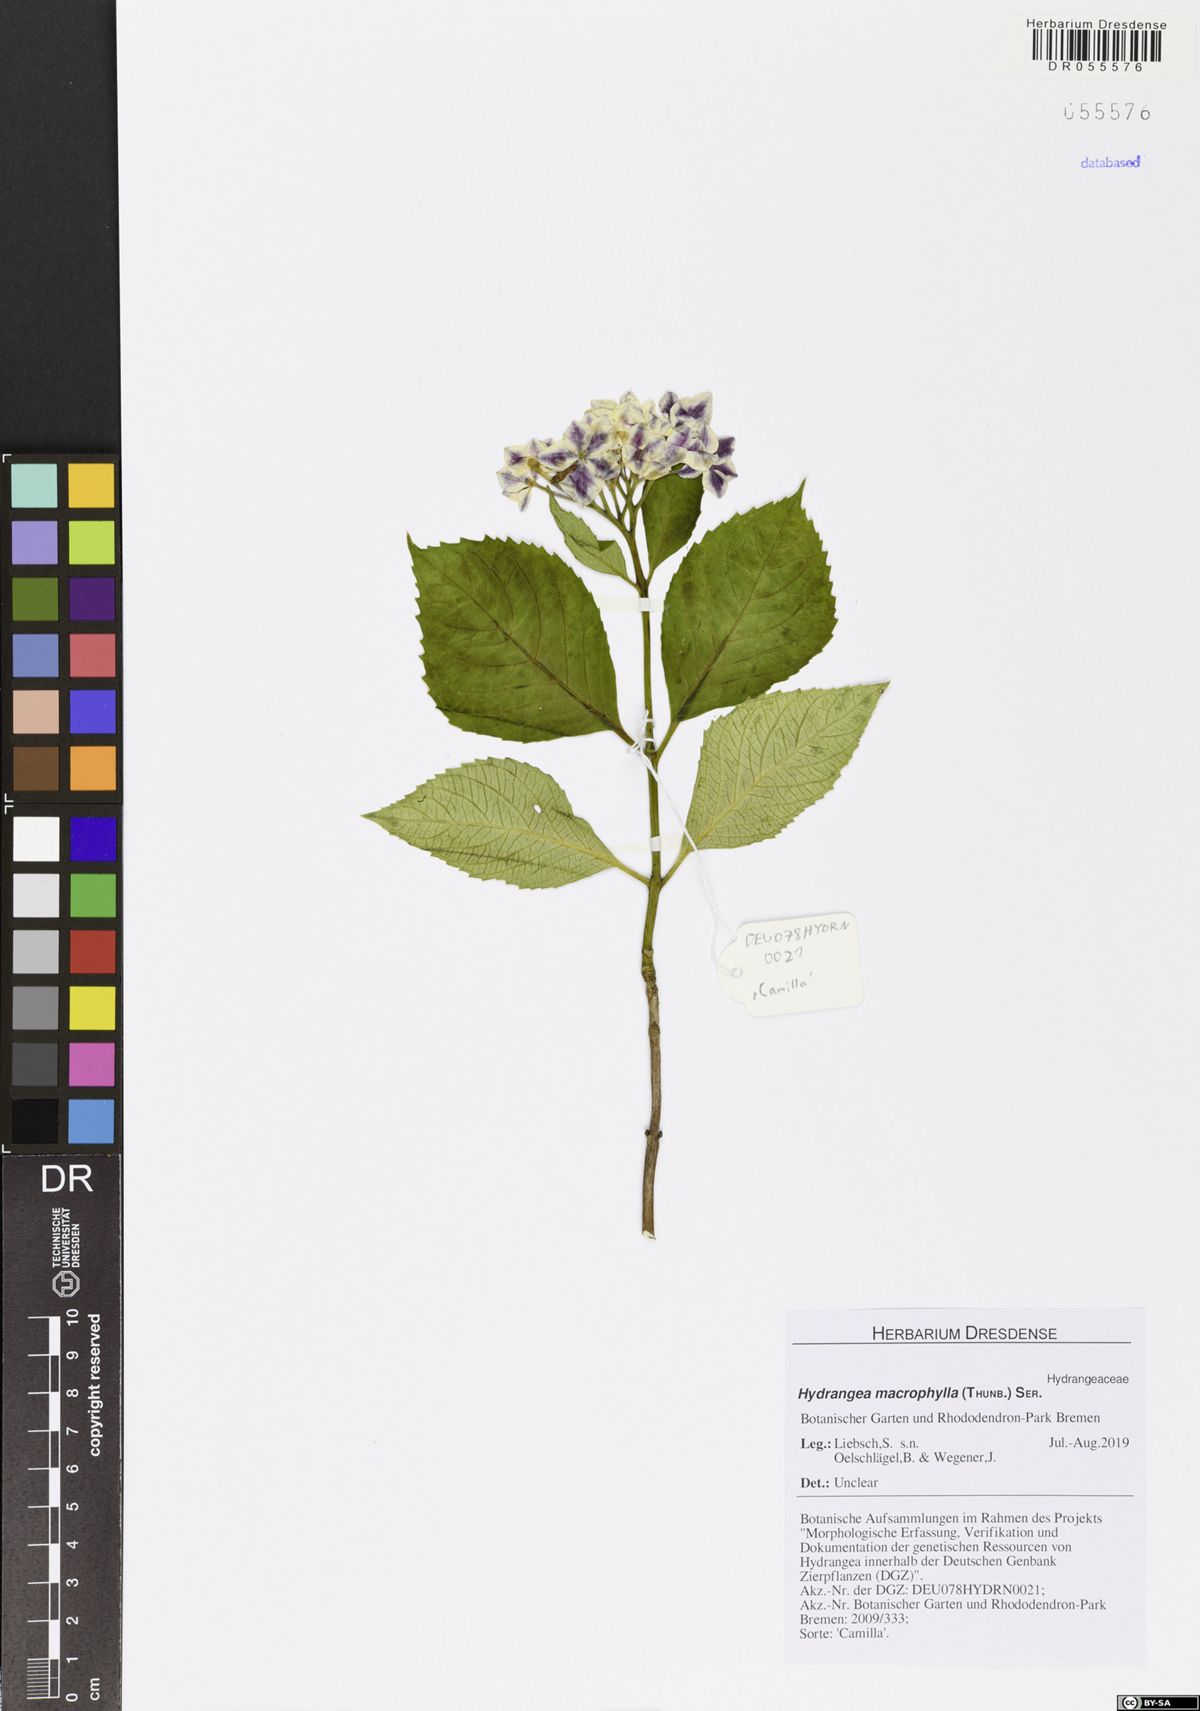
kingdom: Plantae
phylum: Tracheophyta
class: Magnoliopsida
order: Cornales
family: Hydrangeaceae
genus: Hydrangea
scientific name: Hydrangea macrophylla
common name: Hydrangea
